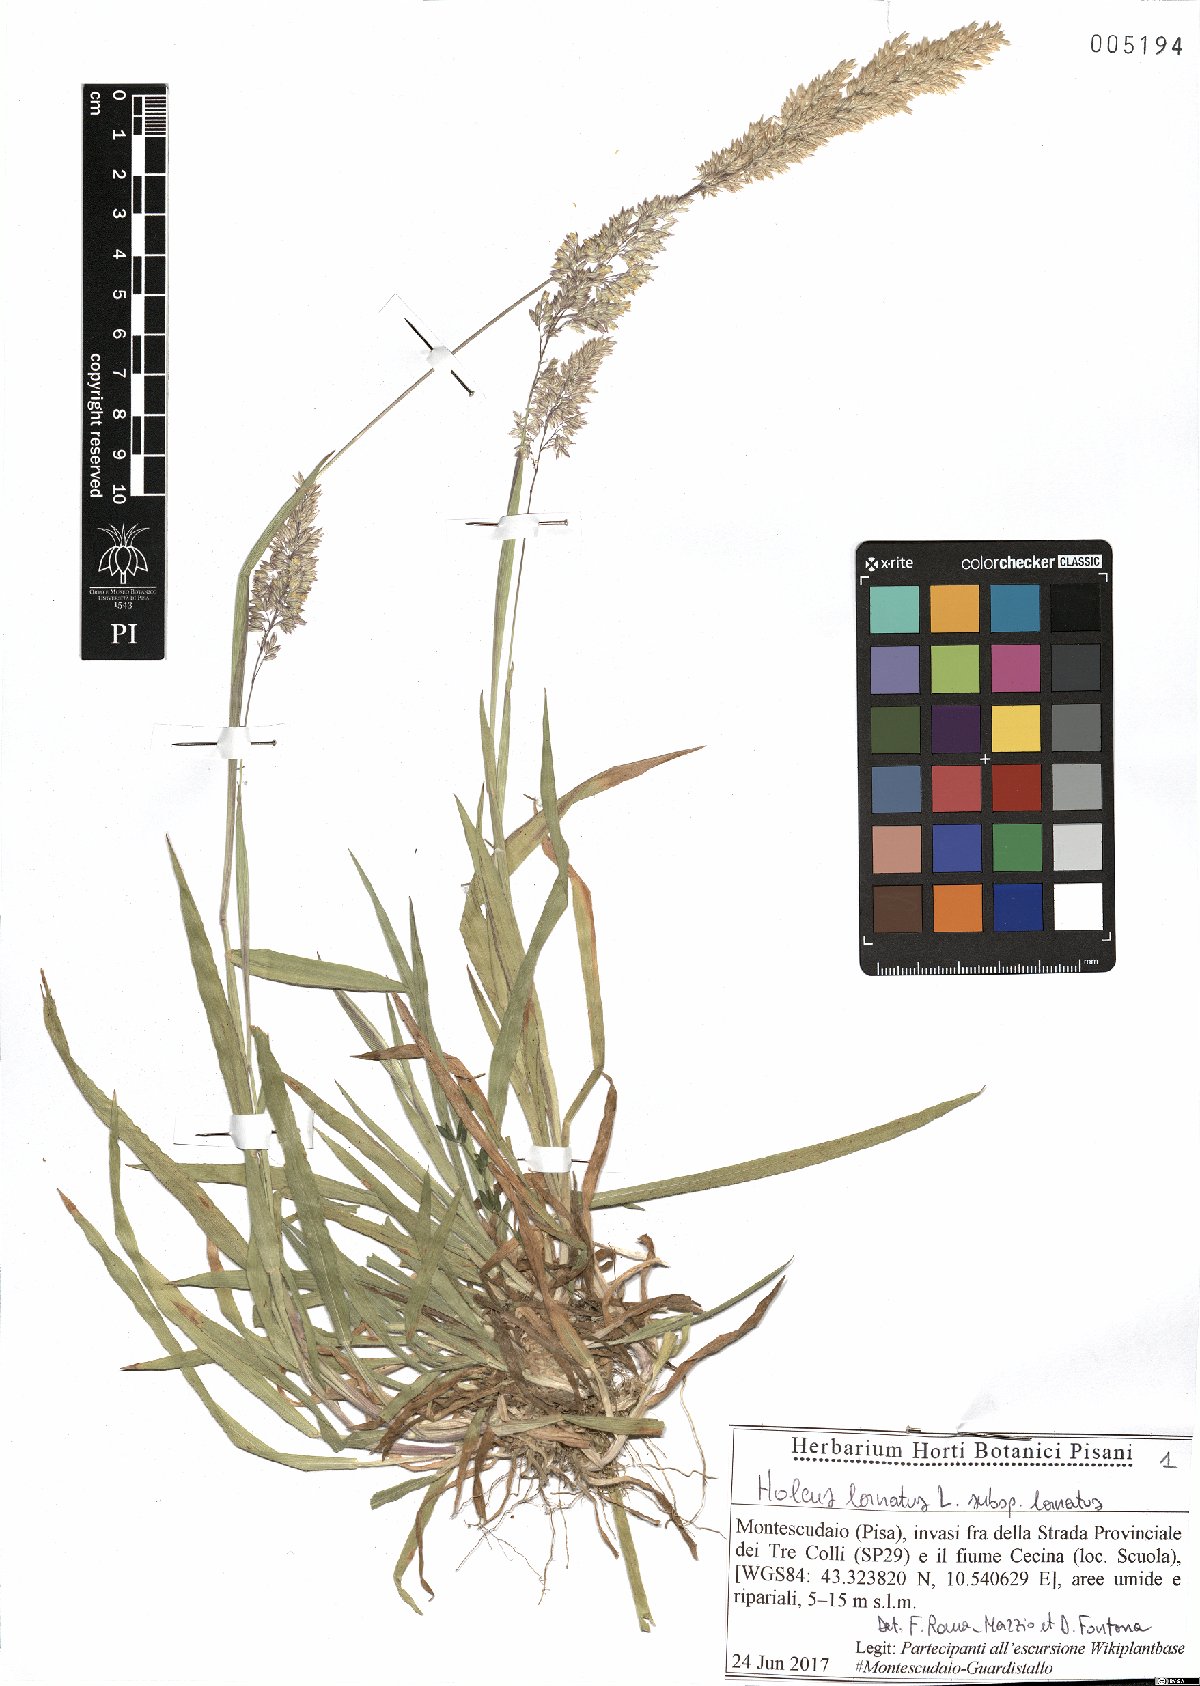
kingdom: Plantae
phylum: Tracheophyta
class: Liliopsida
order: Poales
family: Poaceae
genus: Holcus
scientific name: Holcus lanatus
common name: Yorkshire-fog
